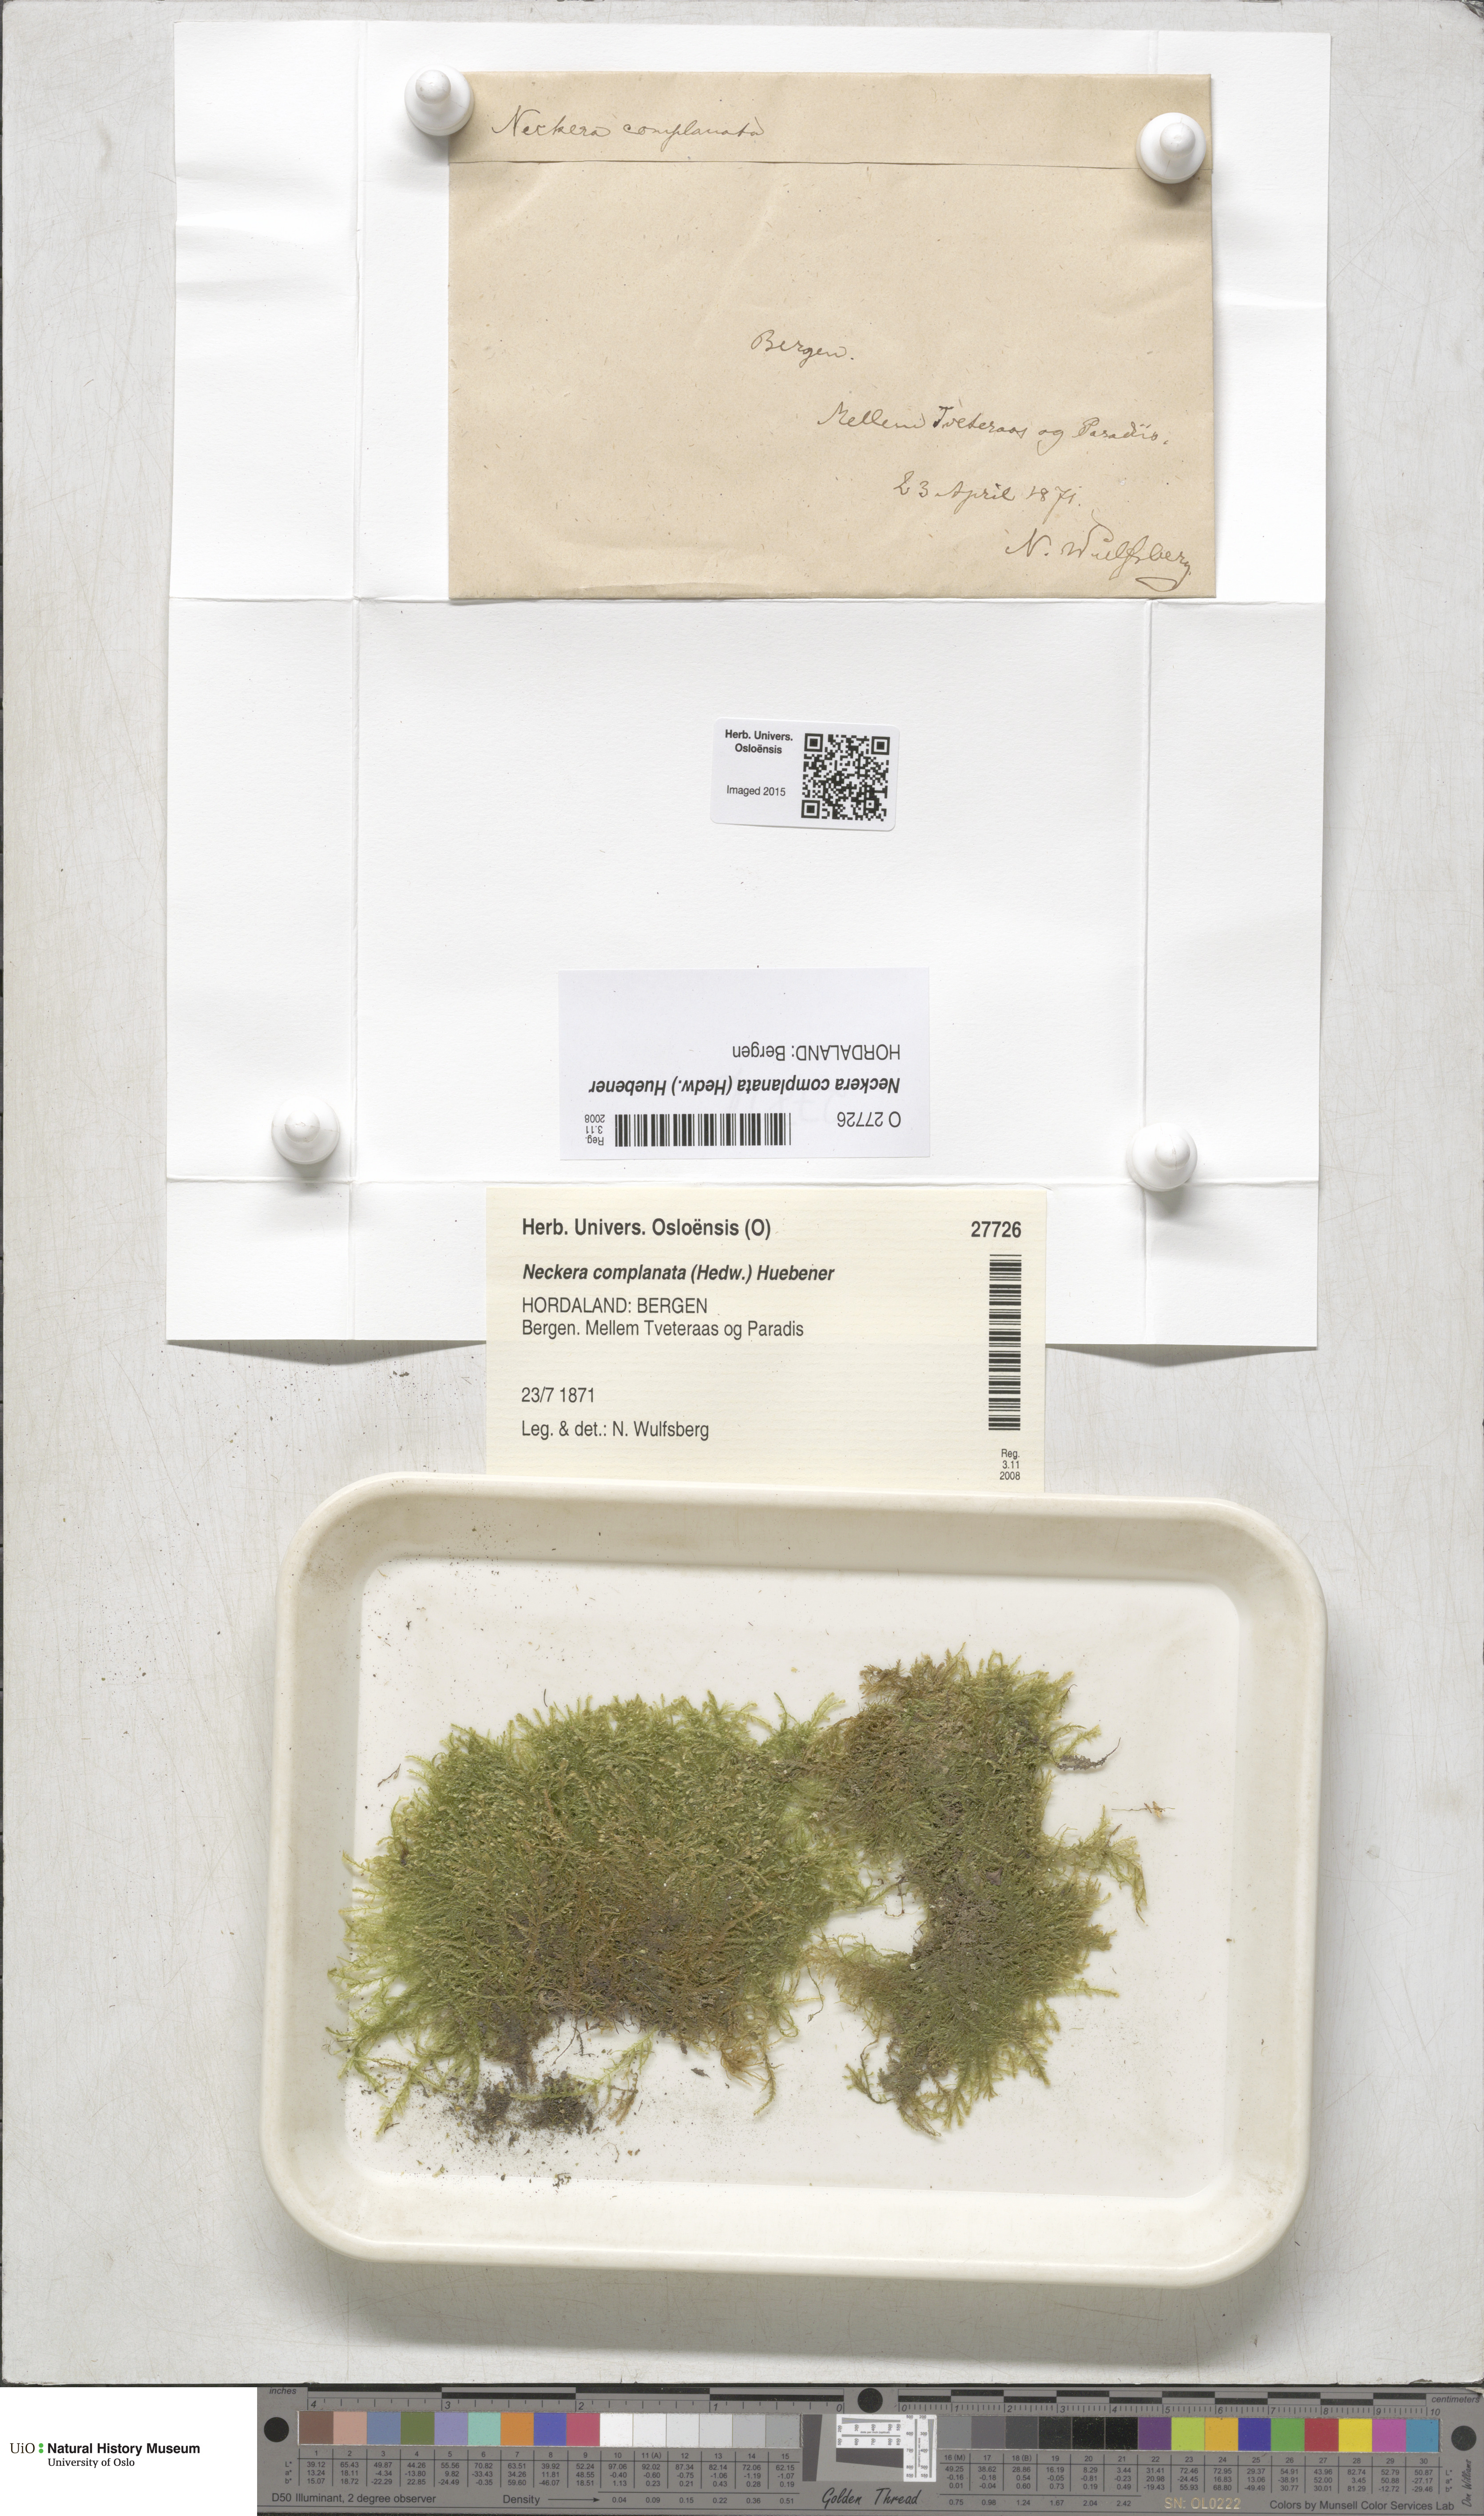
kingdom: Plantae
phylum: Bryophyta
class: Bryopsida
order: Hypnales
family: Neckeraceae
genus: Alleniella
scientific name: Alleniella complanata
